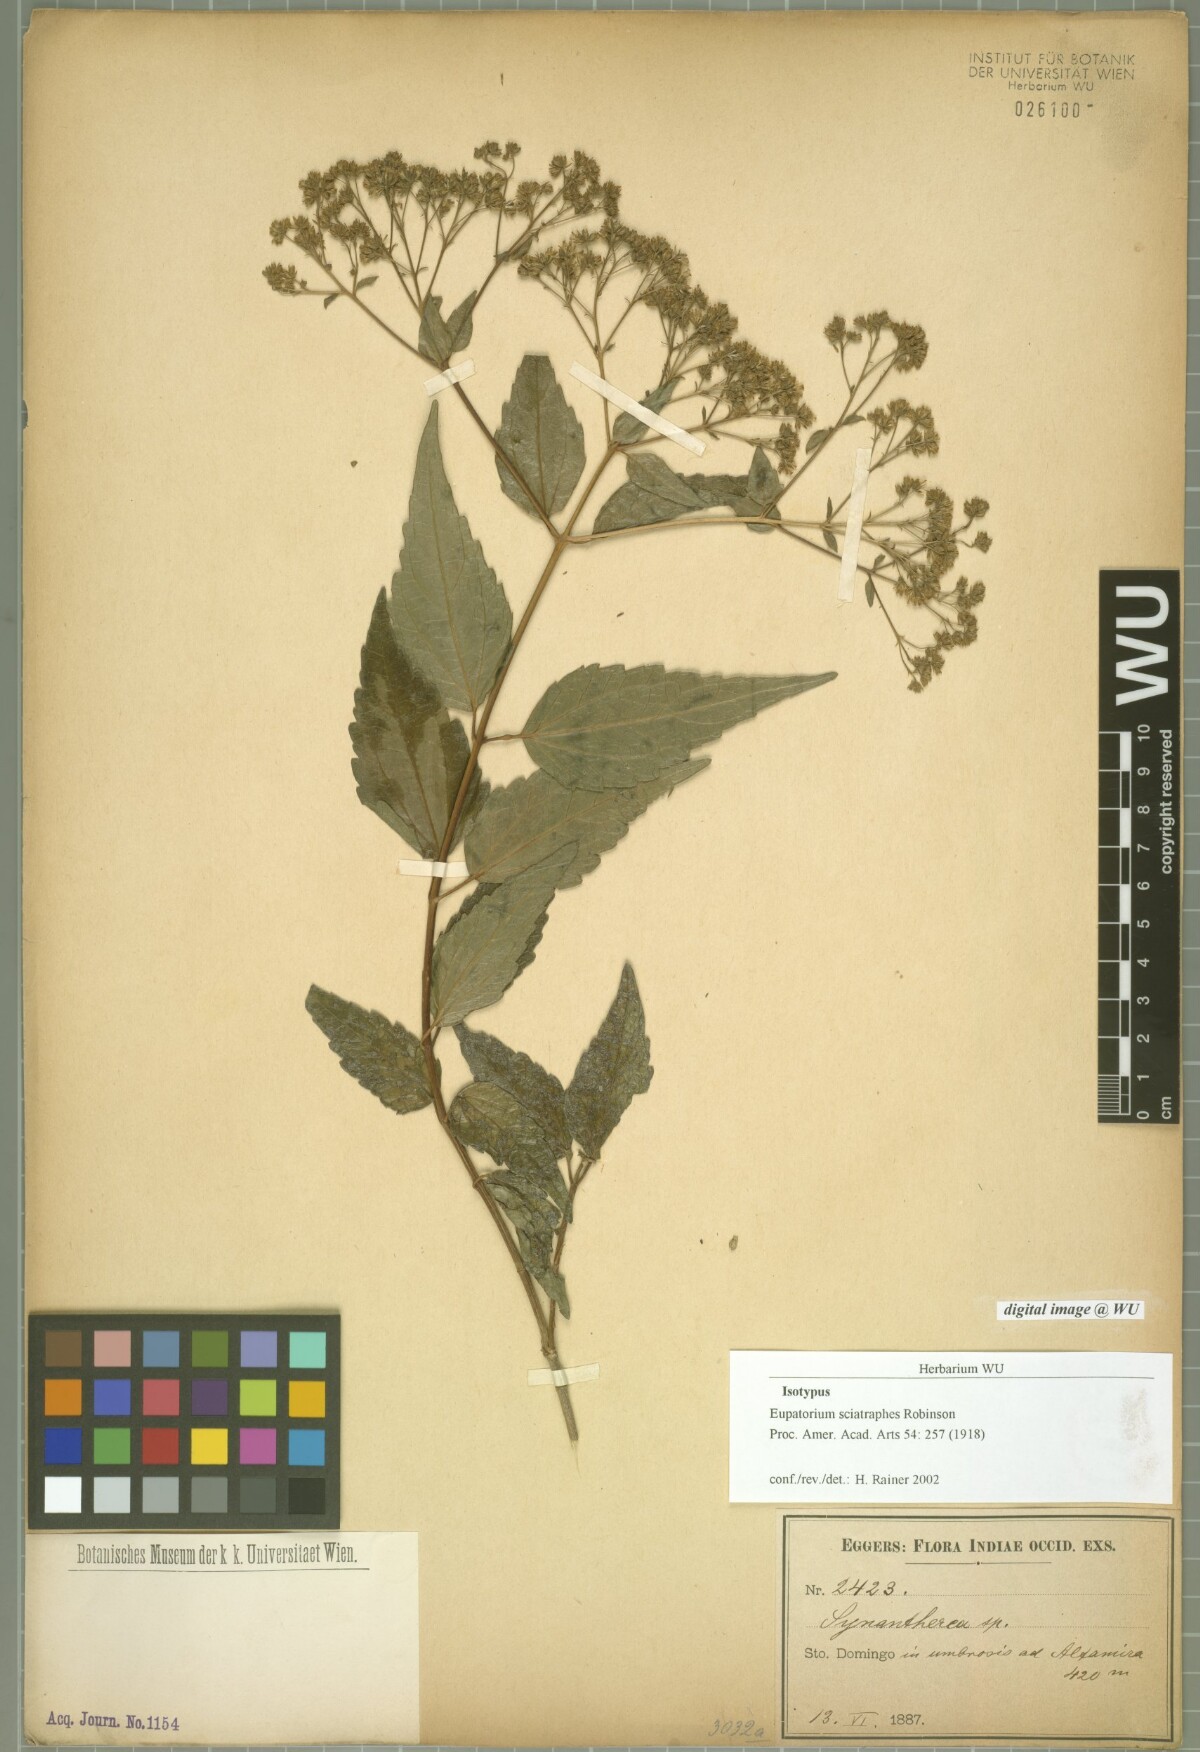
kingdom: Plantae
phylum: Tracheophyta
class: Magnoliopsida
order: Asterales
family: Asteraceae
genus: Koanophyllon
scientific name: Koanophyllon sciatraphes
